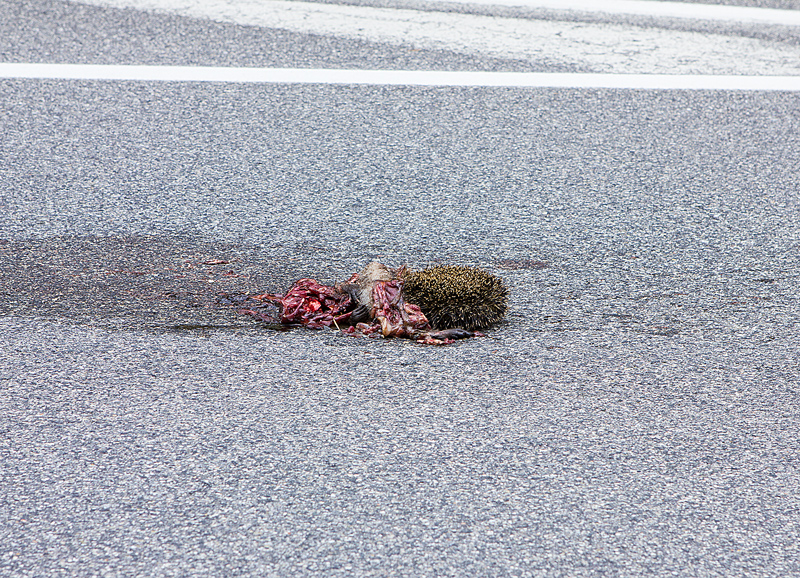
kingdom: Animalia
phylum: Chordata
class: Mammalia
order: Erinaceomorpha
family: Erinaceidae
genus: Erinaceus
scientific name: Erinaceus
